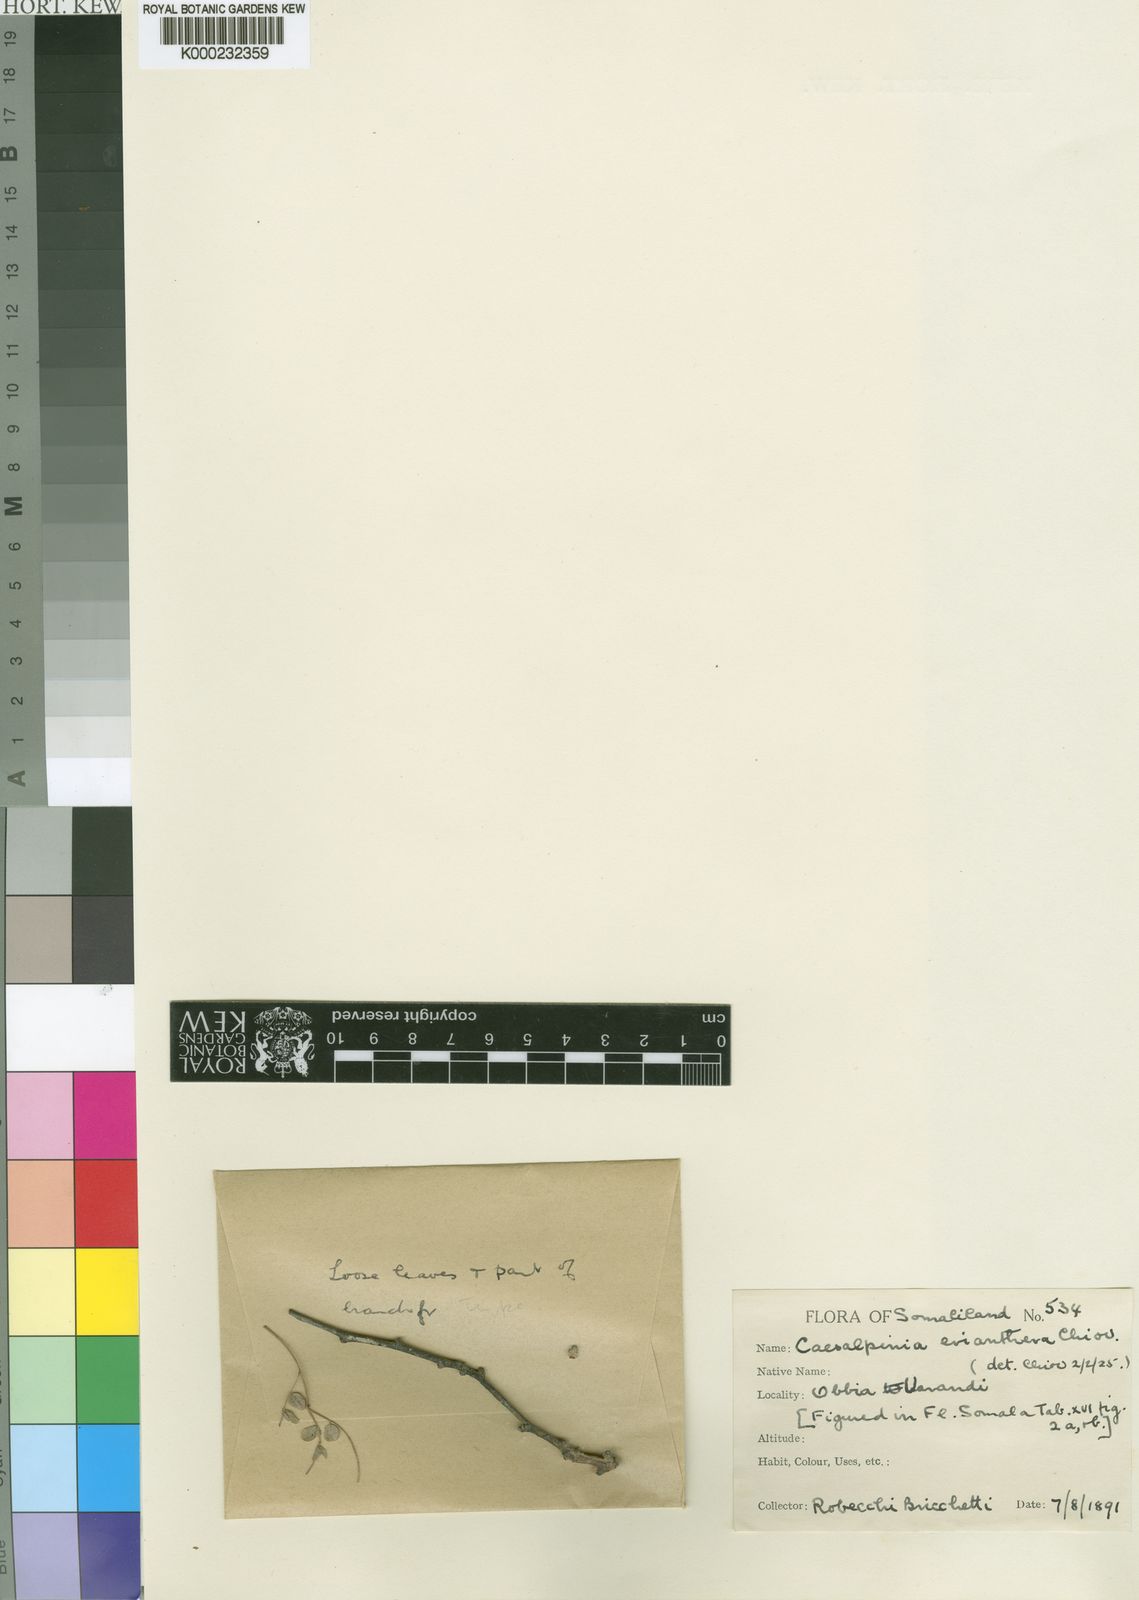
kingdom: Plantae
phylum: Tracheophyta
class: Magnoliopsida
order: Fabales
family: Fabaceae
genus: Denisophytum
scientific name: Denisophytum eriantherum
